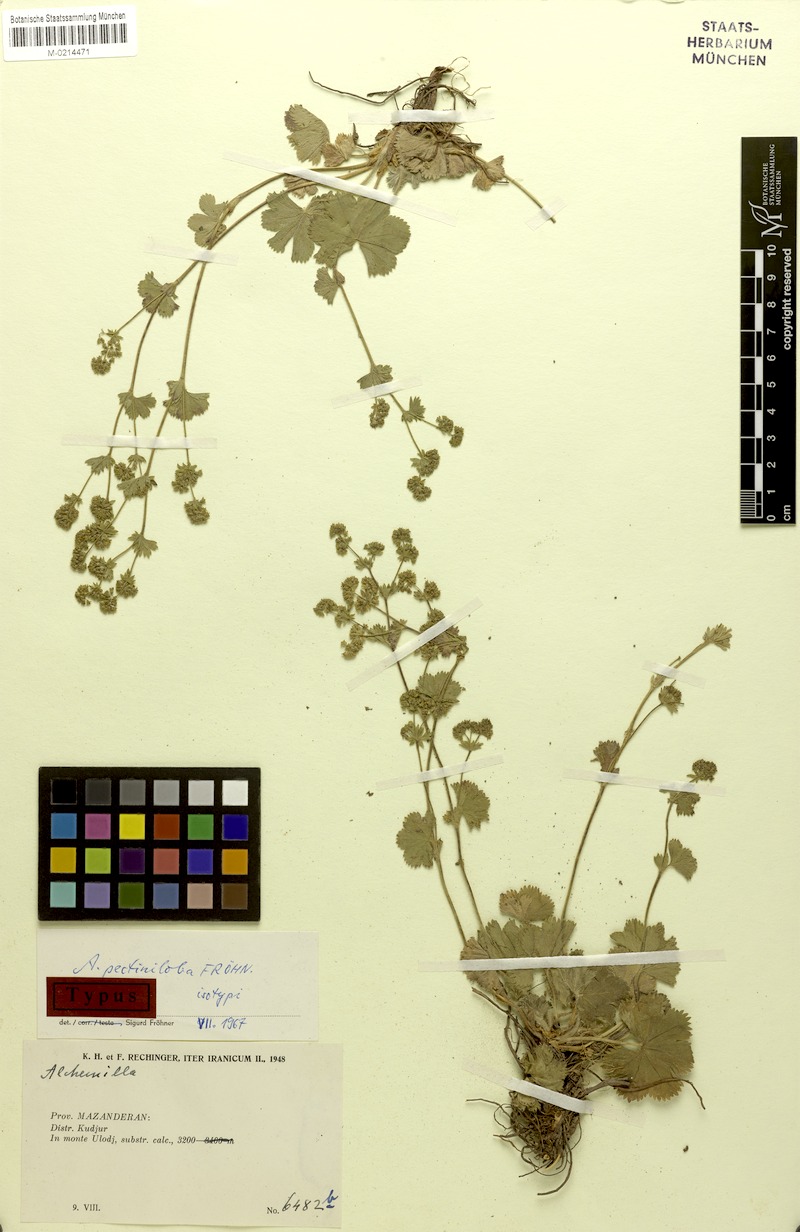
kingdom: Plantae
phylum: Tracheophyta
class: Magnoliopsida
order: Rosales
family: Rosaceae
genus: Alchemilla
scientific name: Alchemilla pectiniloba
